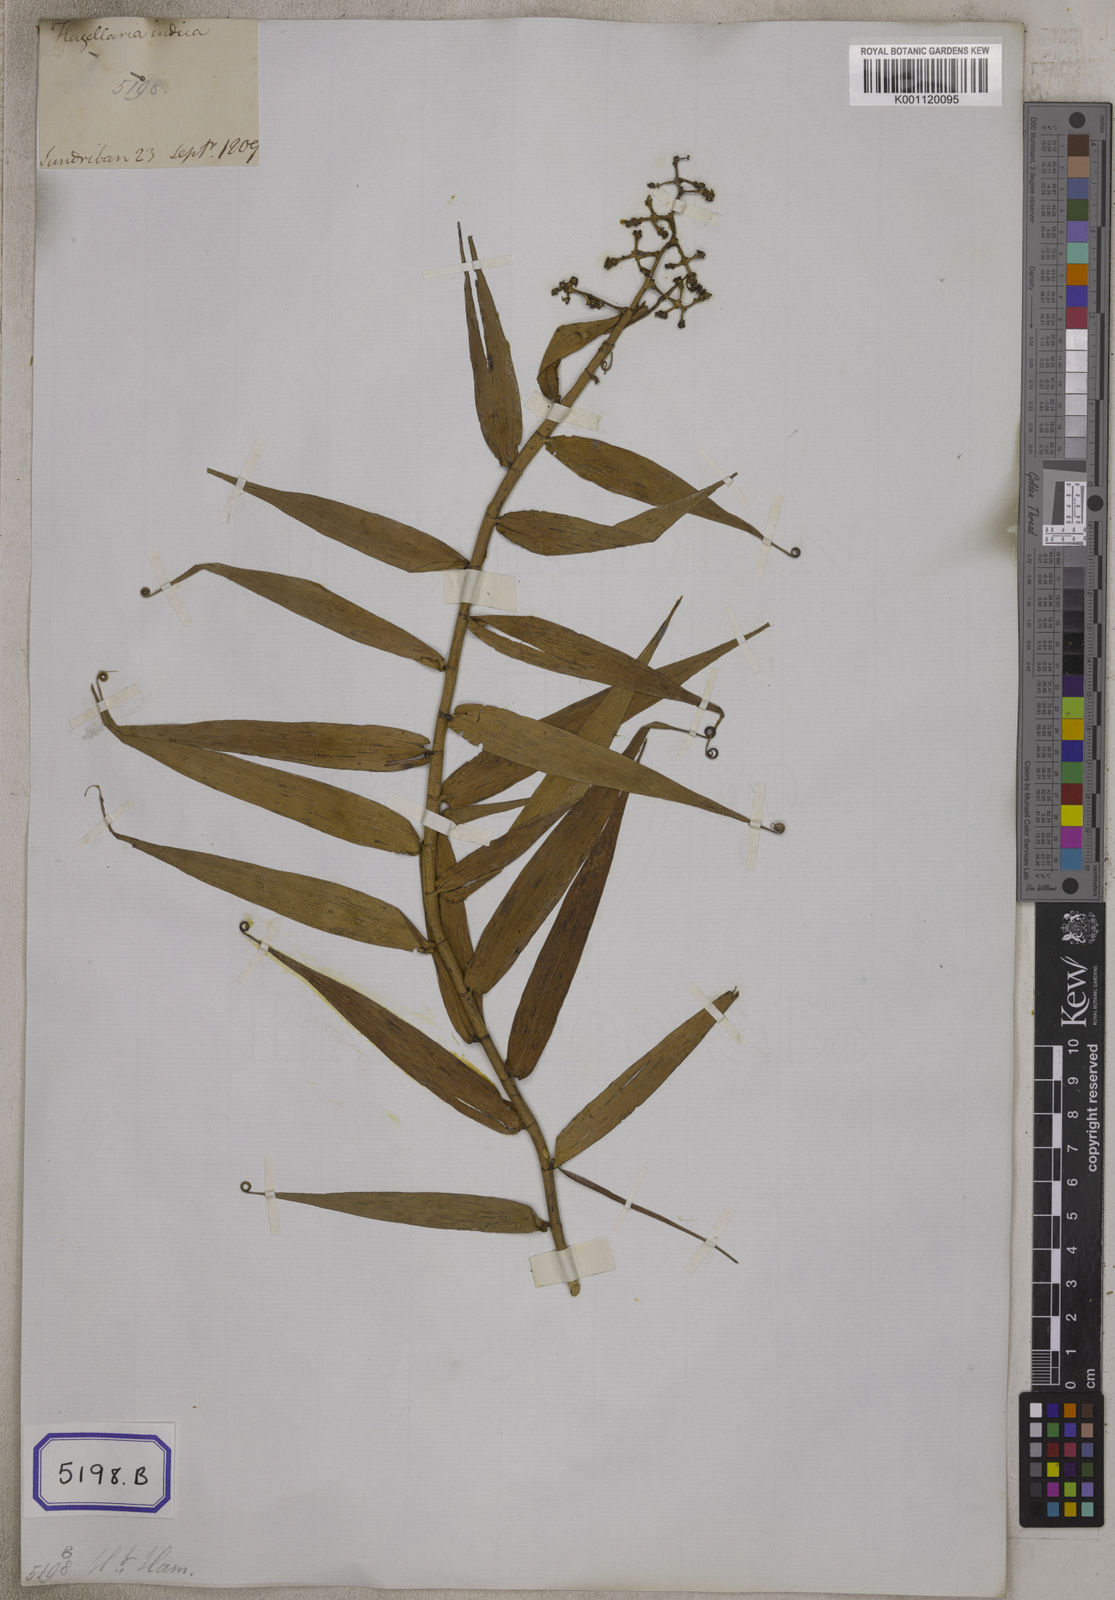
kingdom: Plantae
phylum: Tracheophyta
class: Liliopsida
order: Poales
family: Flagellariaceae
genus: Flagellaria
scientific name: Flagellaria indica
